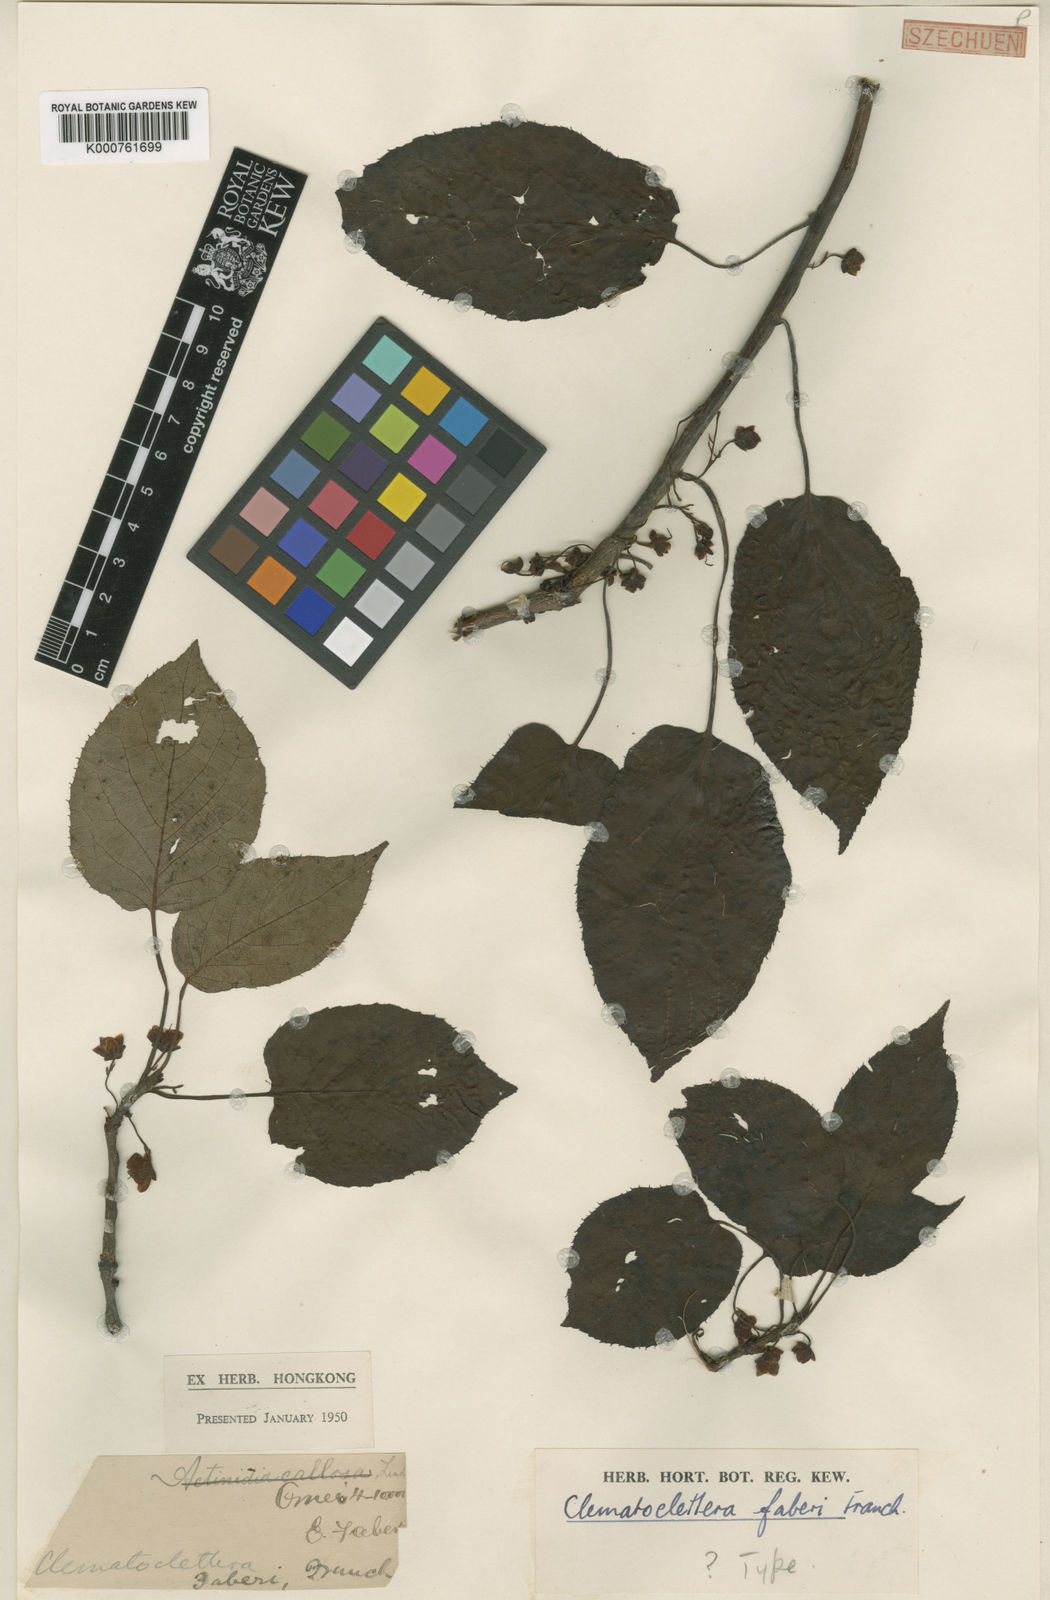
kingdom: Plantae
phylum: Tracheophyta
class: Magnoliopsida
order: Ericales
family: Actinidiaceae
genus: Clematoclethra
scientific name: Clematoclethra scandens
